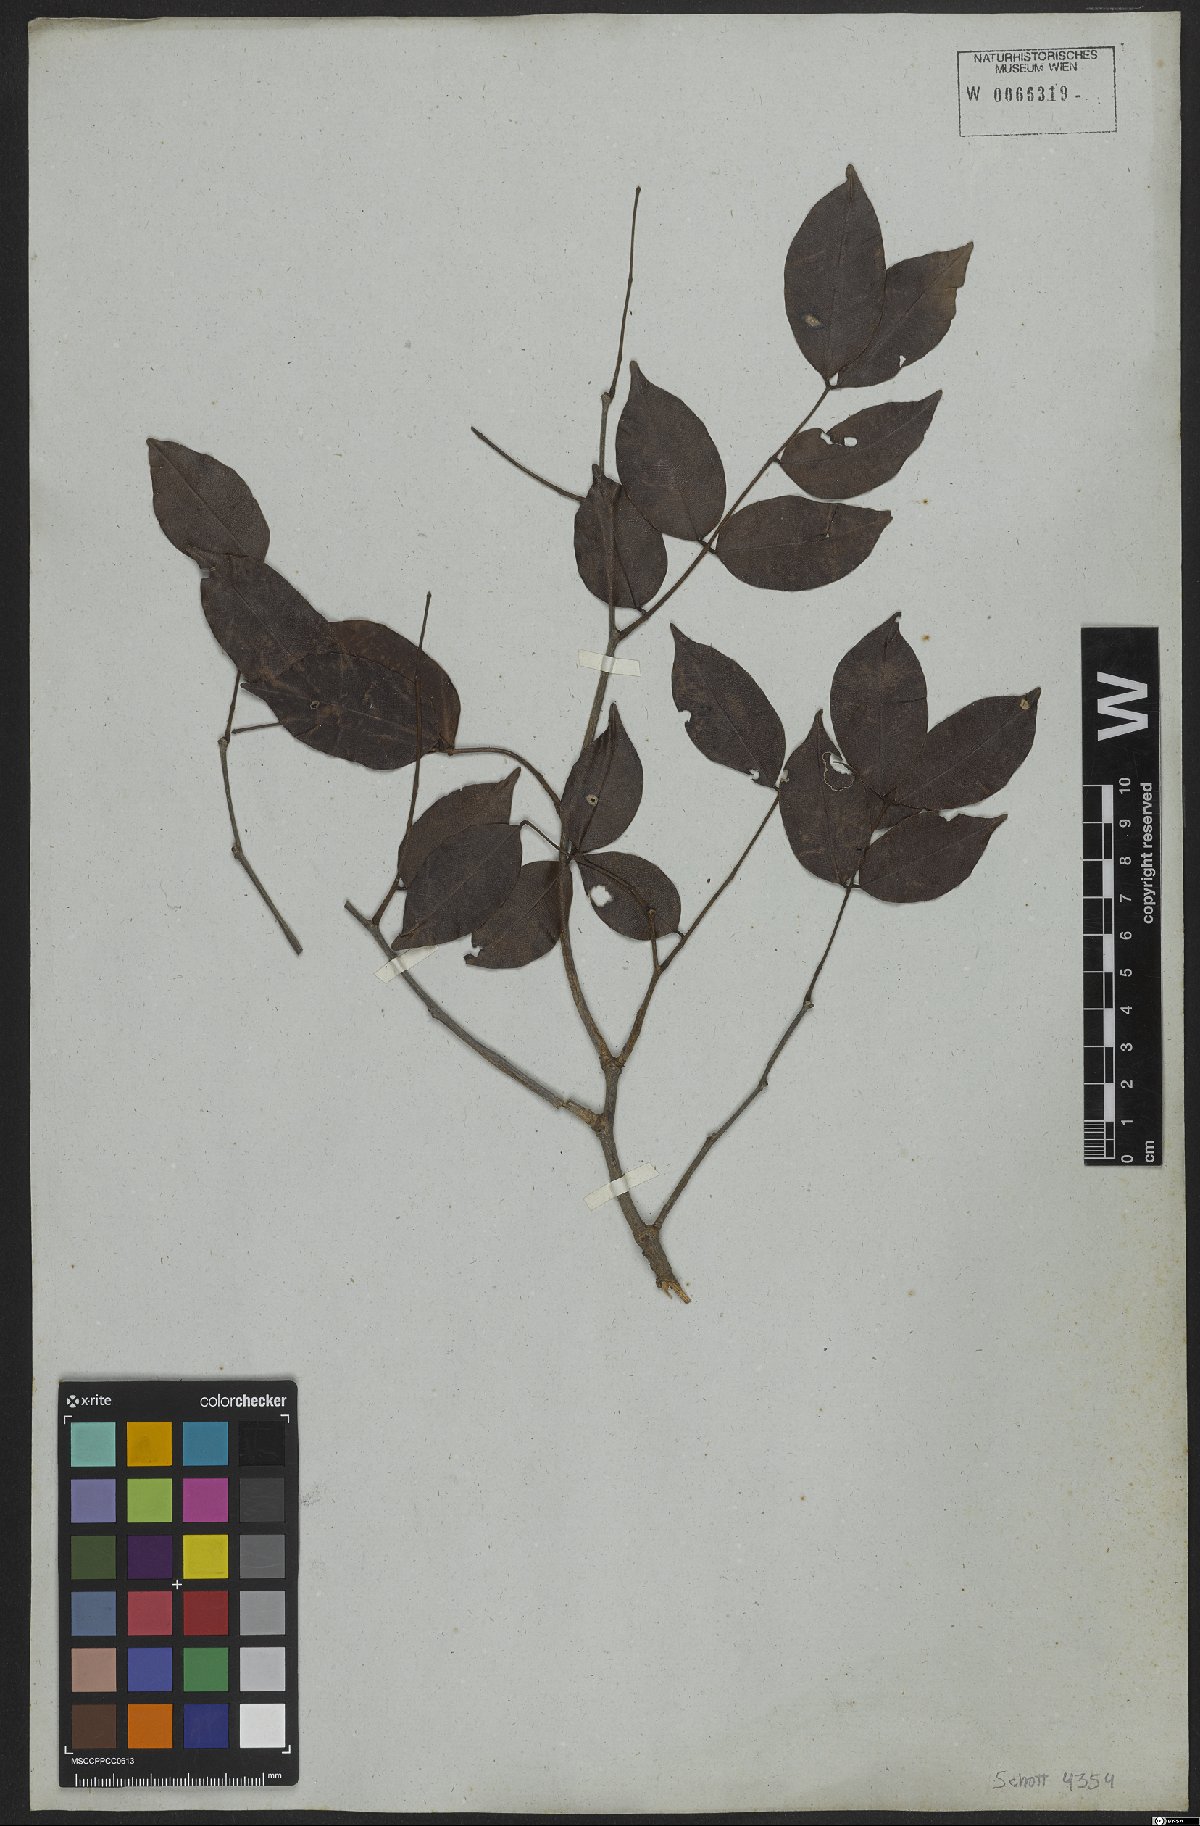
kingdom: Plantae
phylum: Tracheophyta
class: Magnoliopsida
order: Fabales
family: Fabaceae
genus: Copaifera
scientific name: Copaifera
